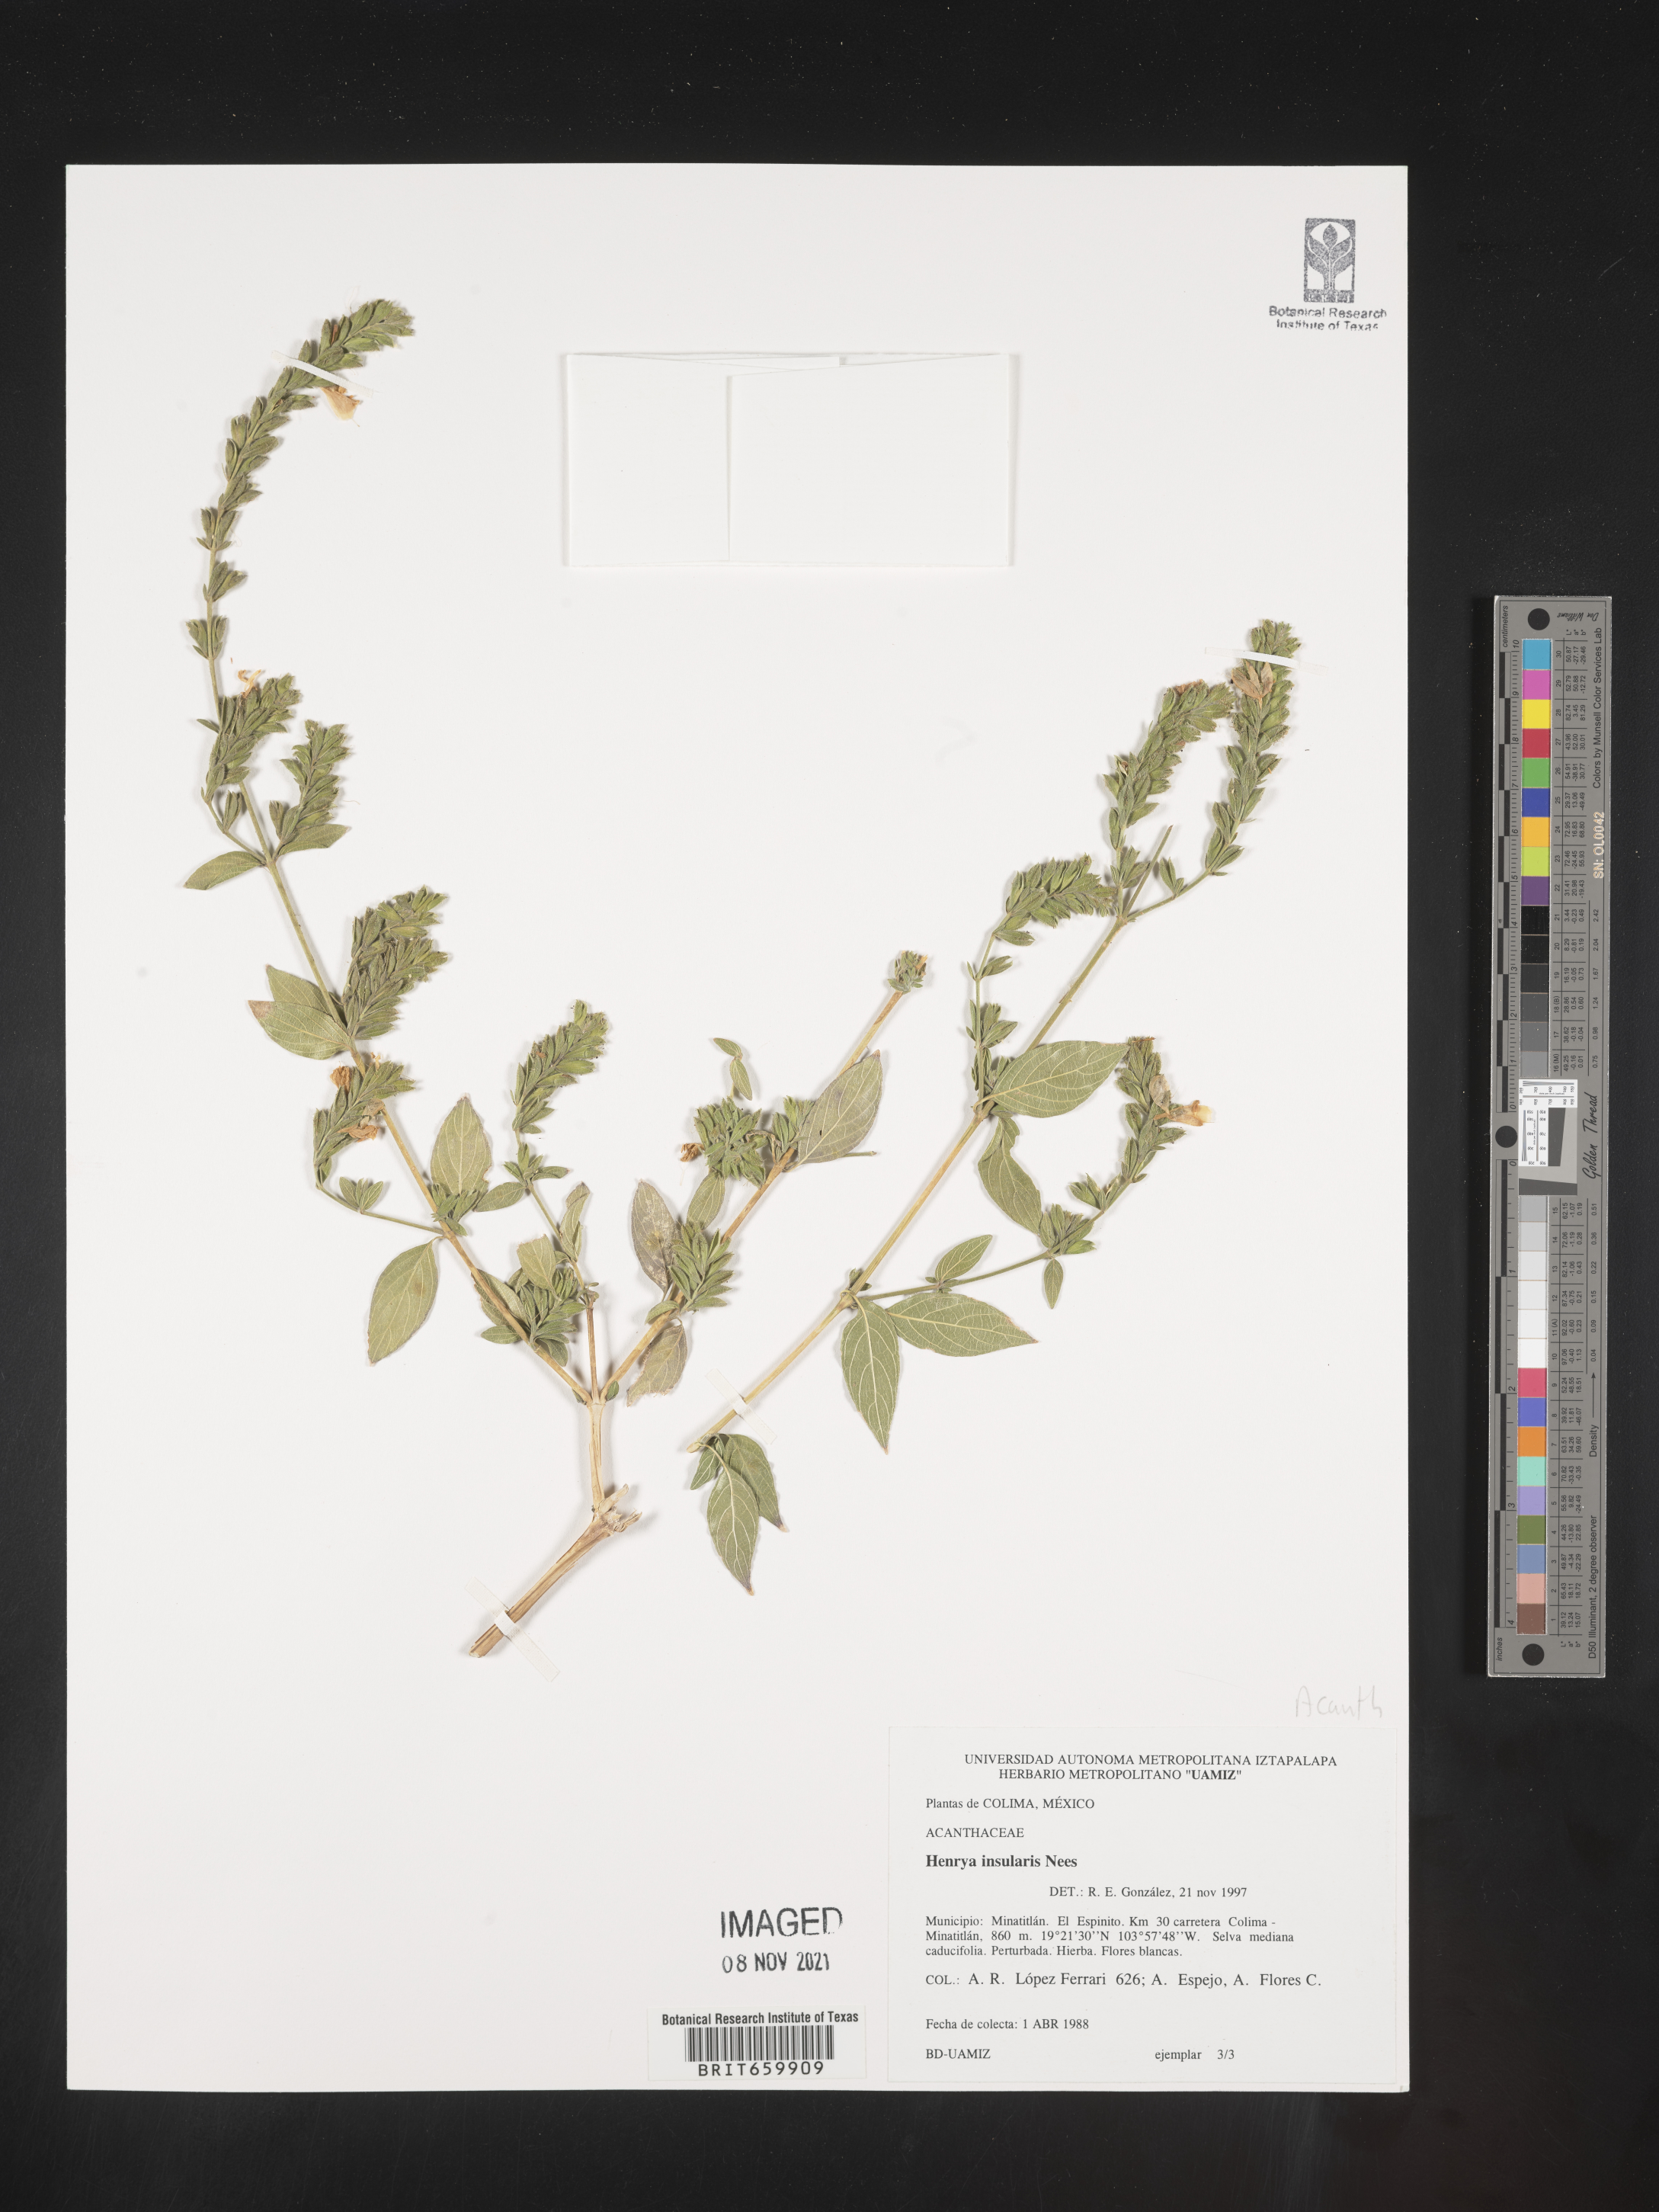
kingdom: Plantae
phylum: Tracheophyta
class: Magnoliopsida
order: Lamiales
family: Acanthaceae
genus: Henrya
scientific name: Henrya
